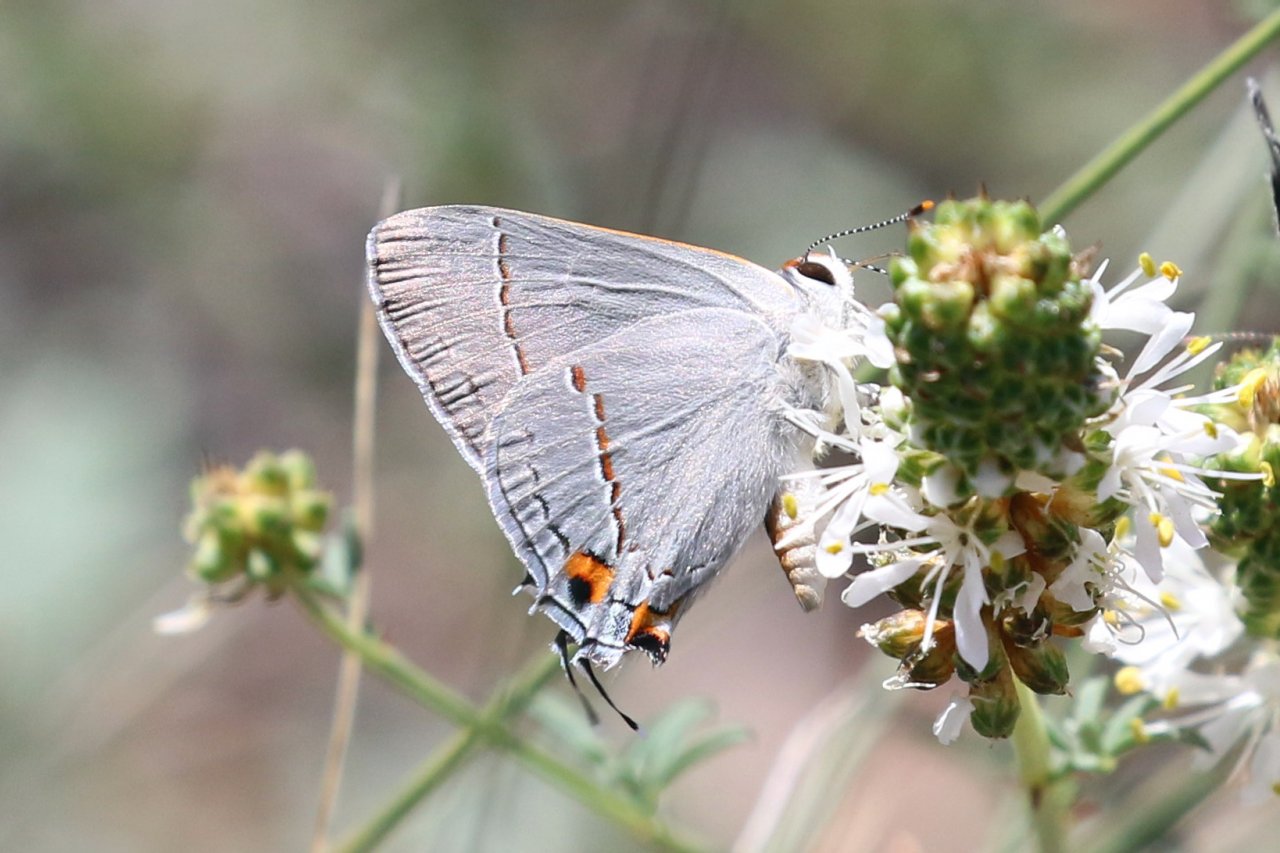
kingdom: Animalia
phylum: Arthropoda
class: Insecta
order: Lepidoptera
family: Lycaenidae
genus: Strymon
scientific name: Strymon melinus
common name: Gray Hairstreak
